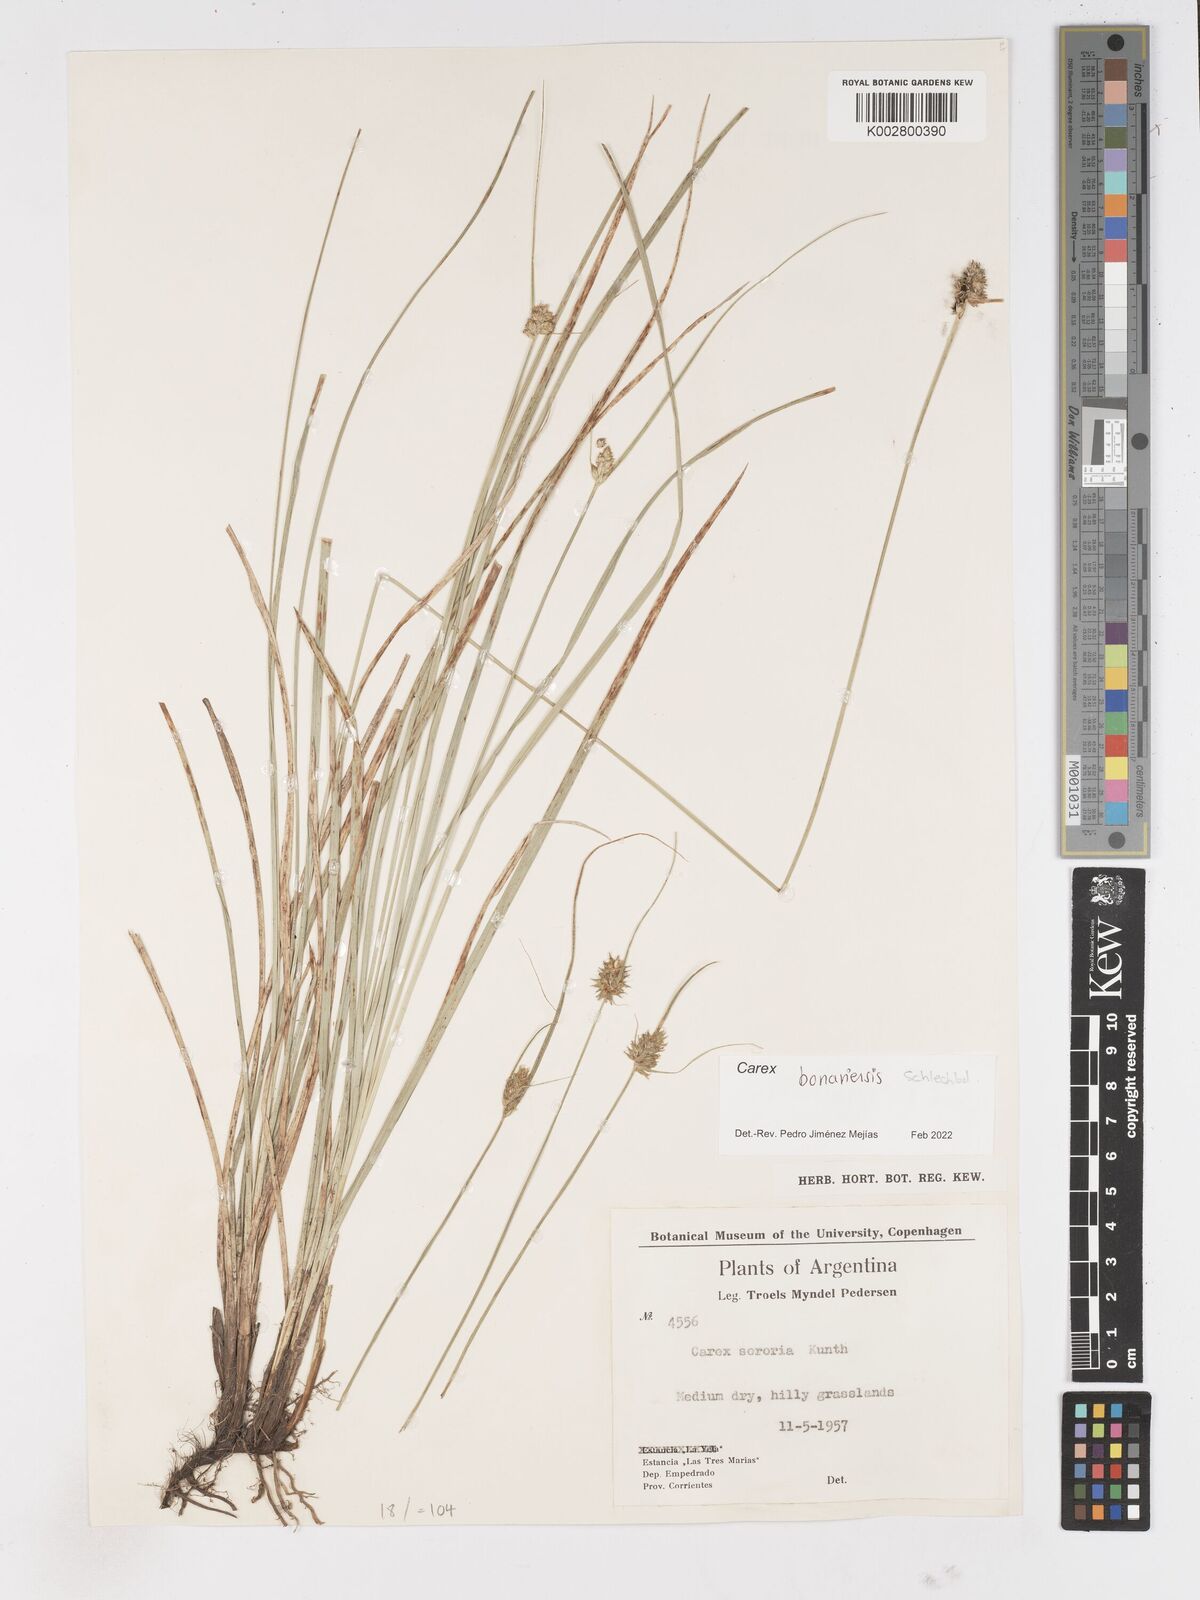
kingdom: Plantae
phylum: Tracheophyta
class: Liliopsida
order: Poales
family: Cyperaceae
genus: Carex
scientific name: Carex sororia
